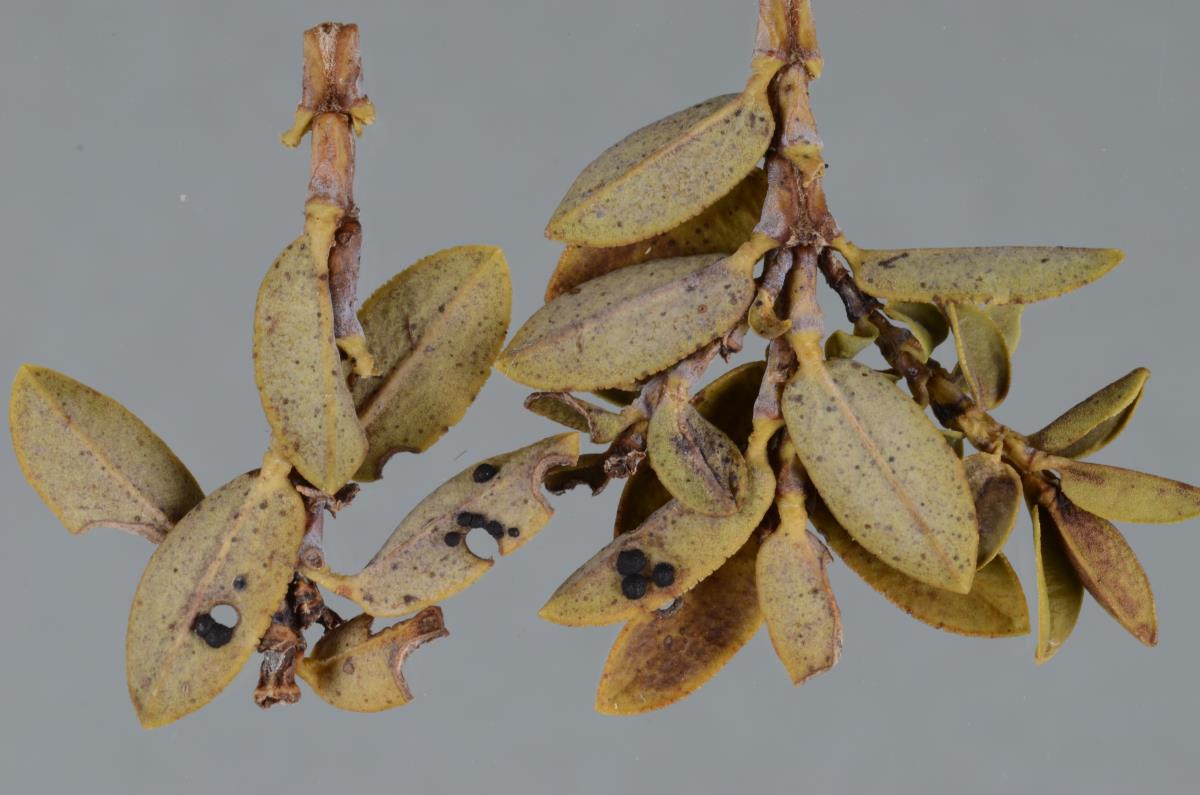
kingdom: Fungi
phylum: Ascomycota
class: Dothideomycetes
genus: Clypeostroma
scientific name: Clypeostroma hemisphaericum
